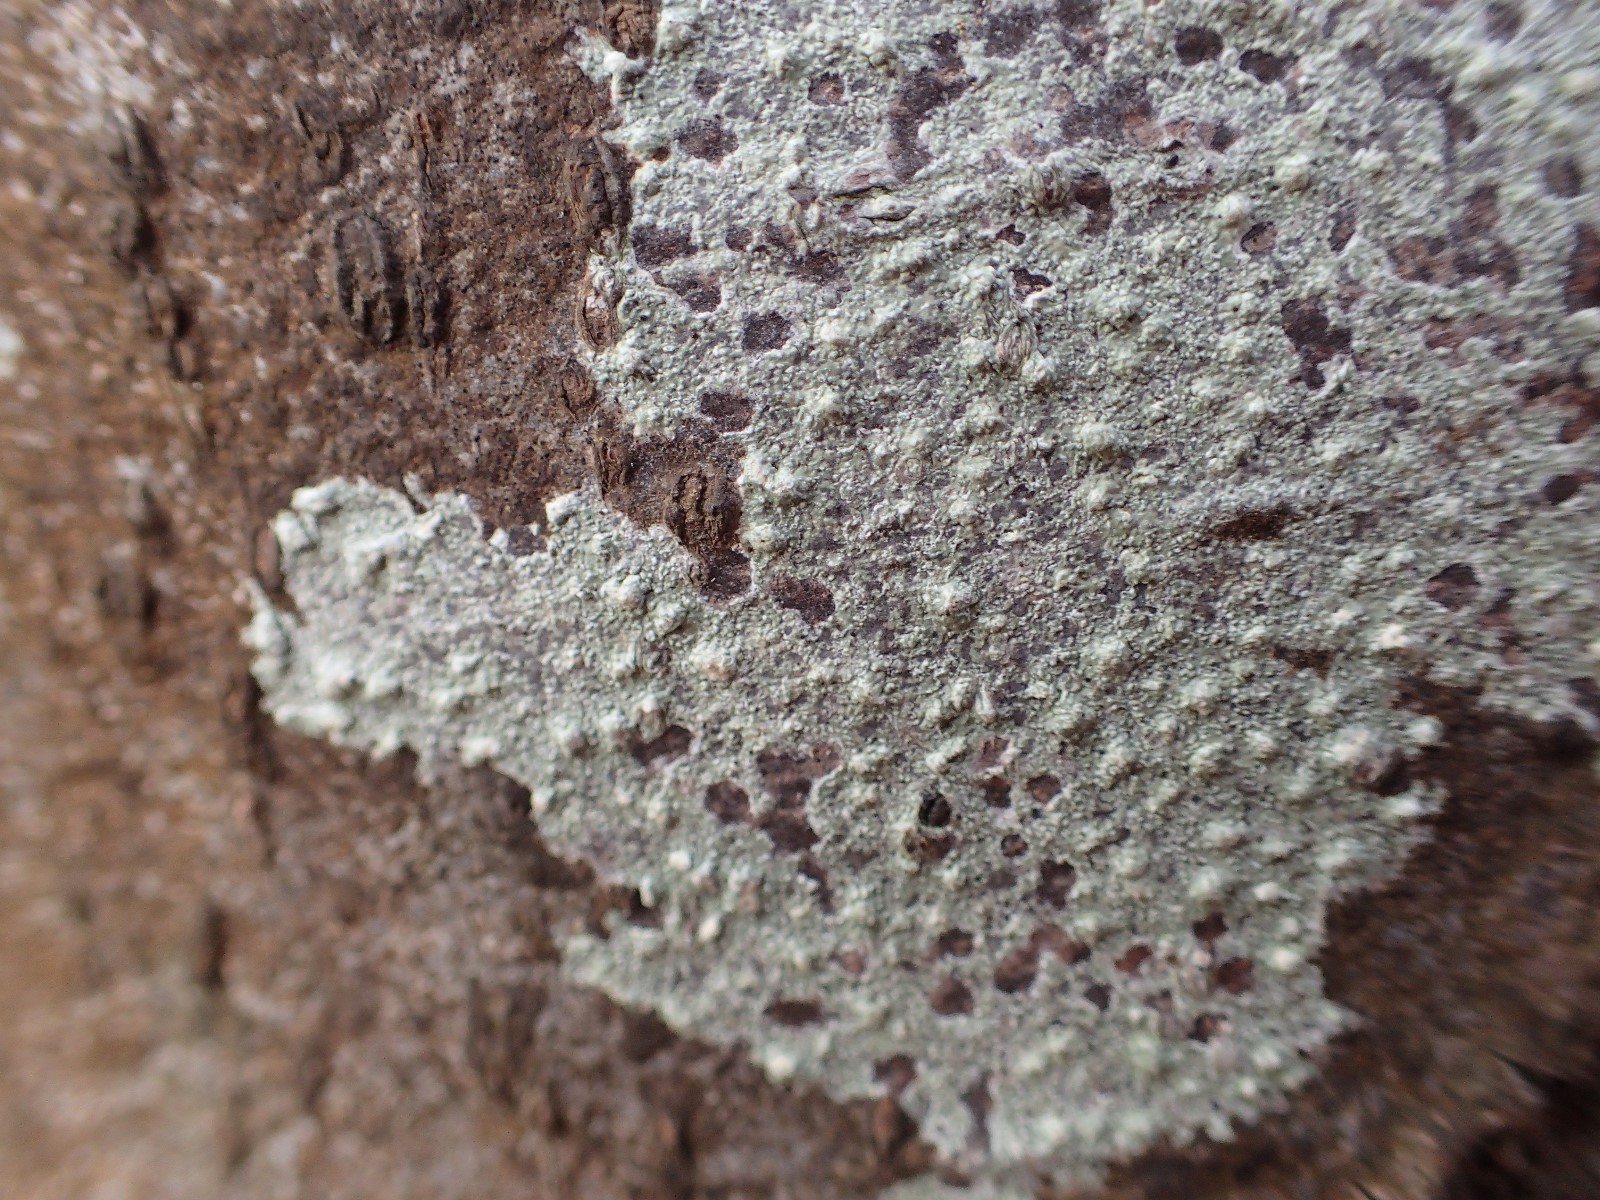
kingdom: Fungi
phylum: Ascomycota
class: Lecanoromycetes
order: Pertusariales
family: Pertusariaceae
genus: Lepra
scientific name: Lepra amara
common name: bitter prikvortelav
